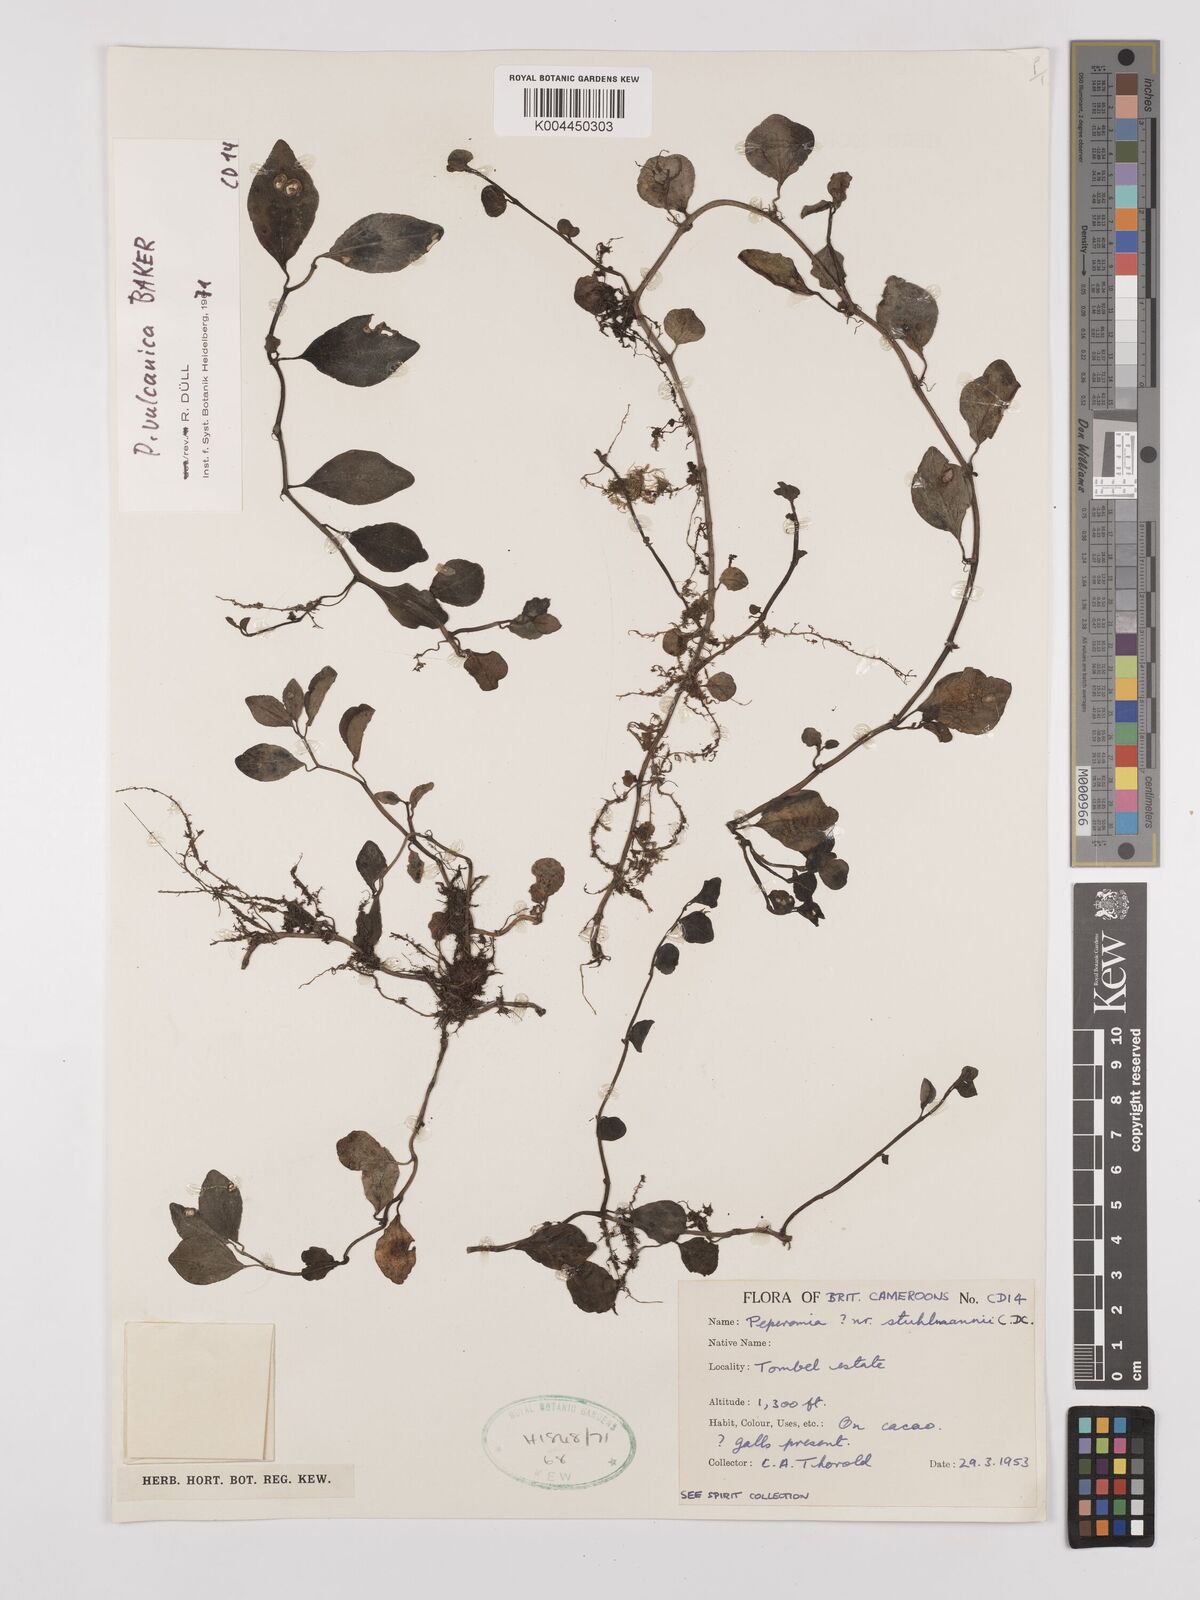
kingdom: Plantae
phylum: Tracheophyta
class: Magnoliopsida
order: Piperales
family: Piperaceae
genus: Peperomia
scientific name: Peperomia vulcanica
